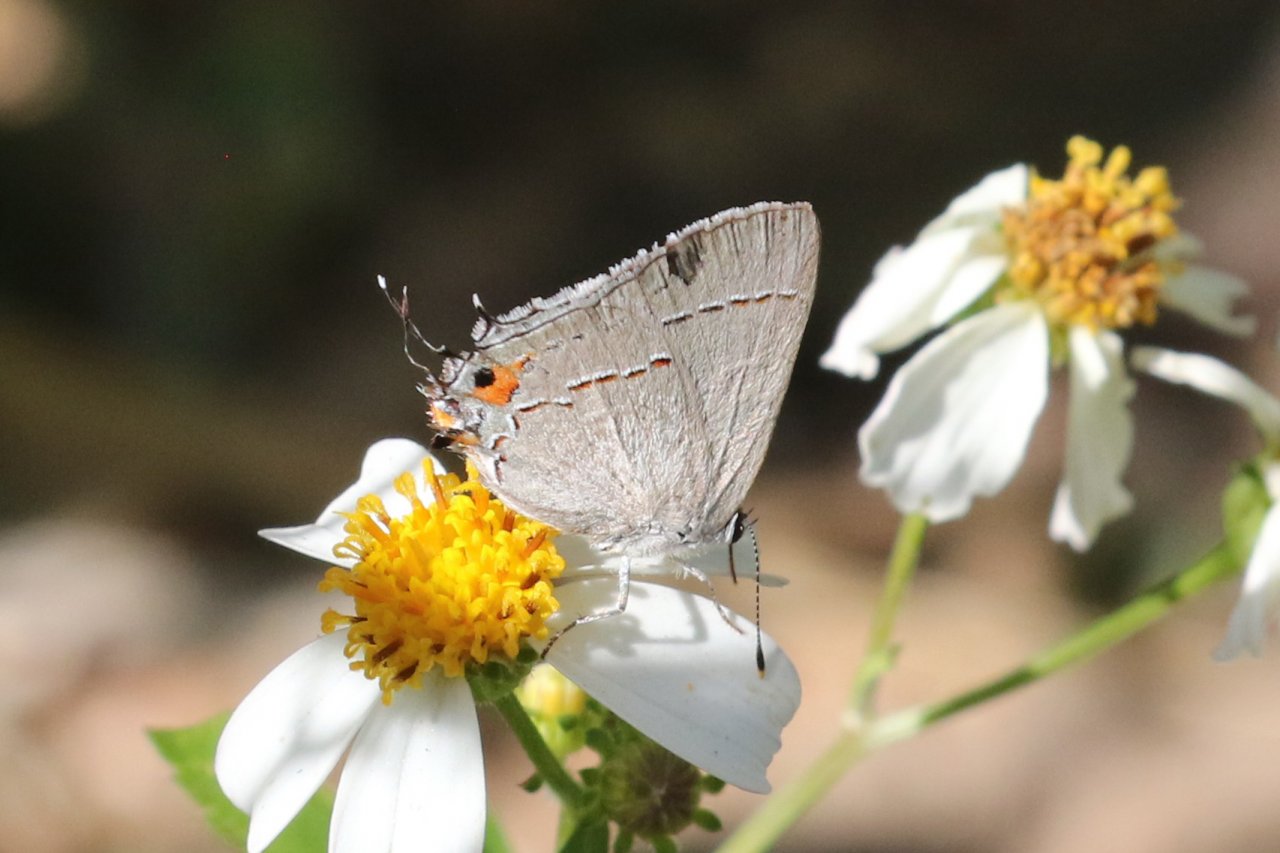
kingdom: Animalia
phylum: Arthropoda
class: Insecta
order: Lepidoptera
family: Lycaenidae
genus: Strymon
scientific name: Strymon melinus
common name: Gray Hairstreak
